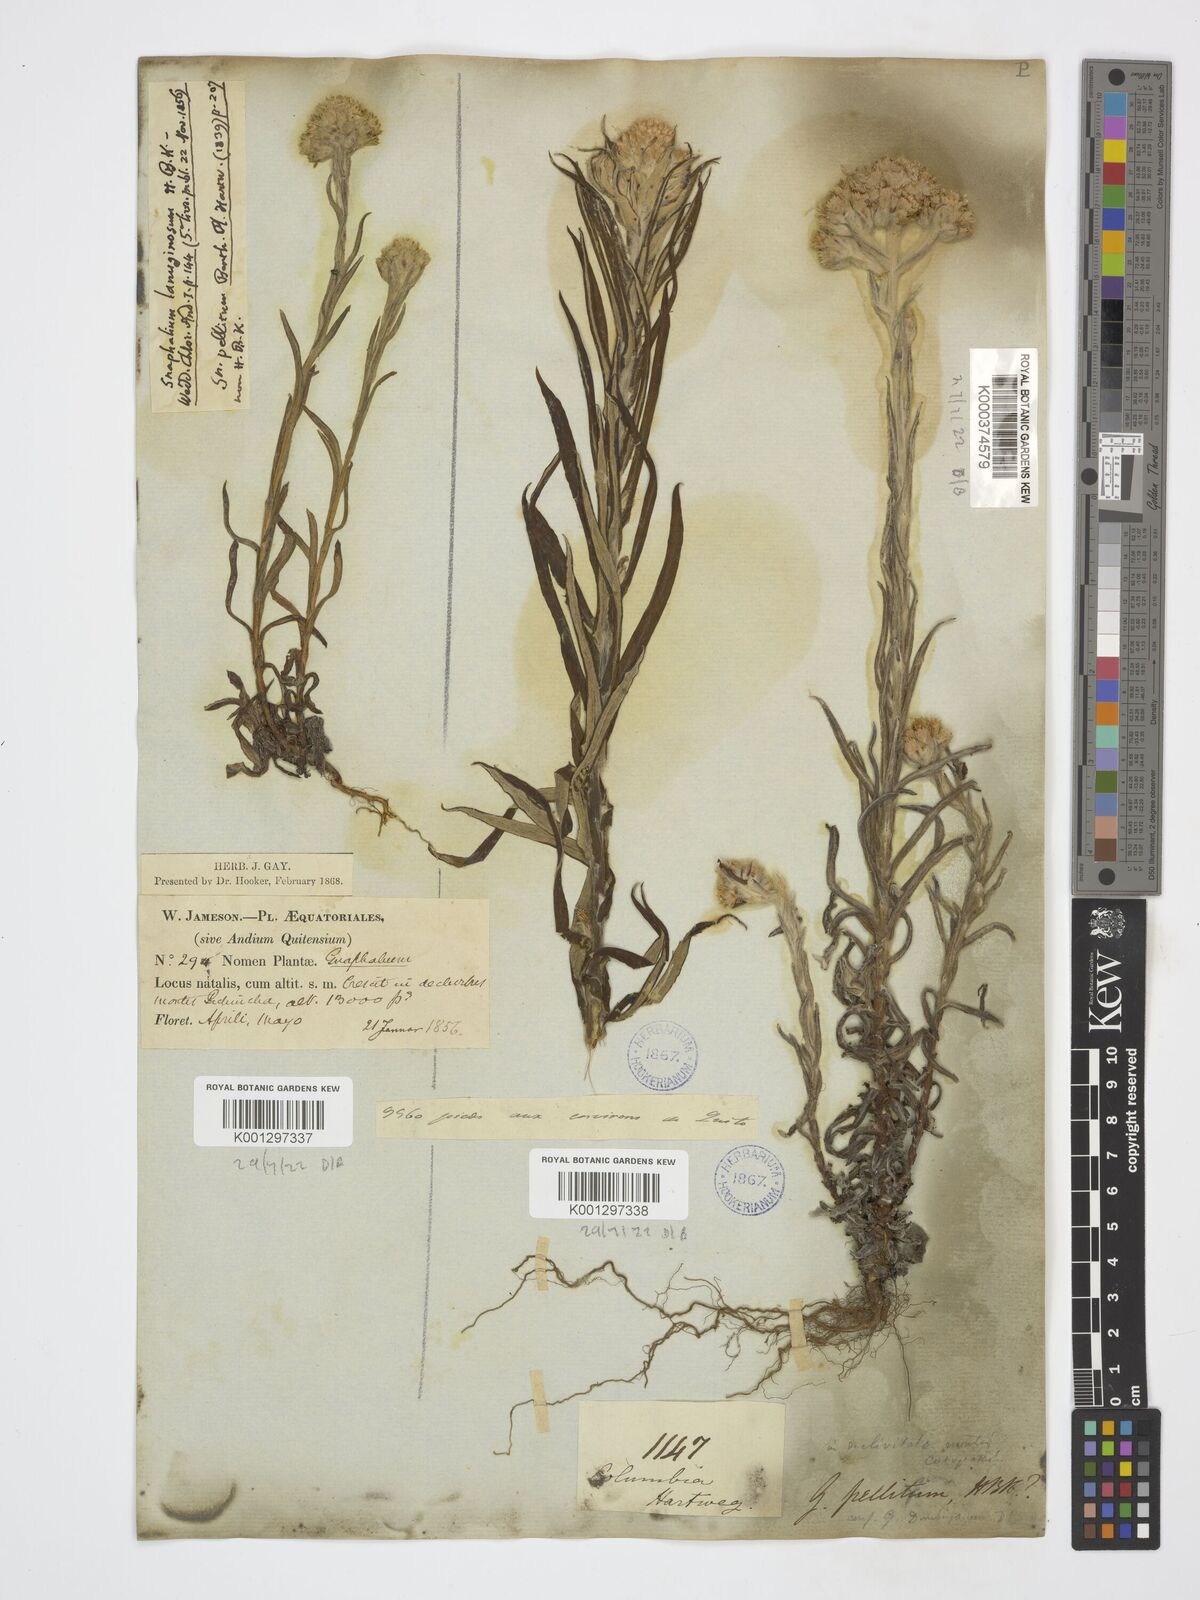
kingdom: Plantae
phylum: Tracheophyta
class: Magnoliopsida
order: Asterales
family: Asteraceae
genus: Achyrocline
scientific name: Achyrocline alata
